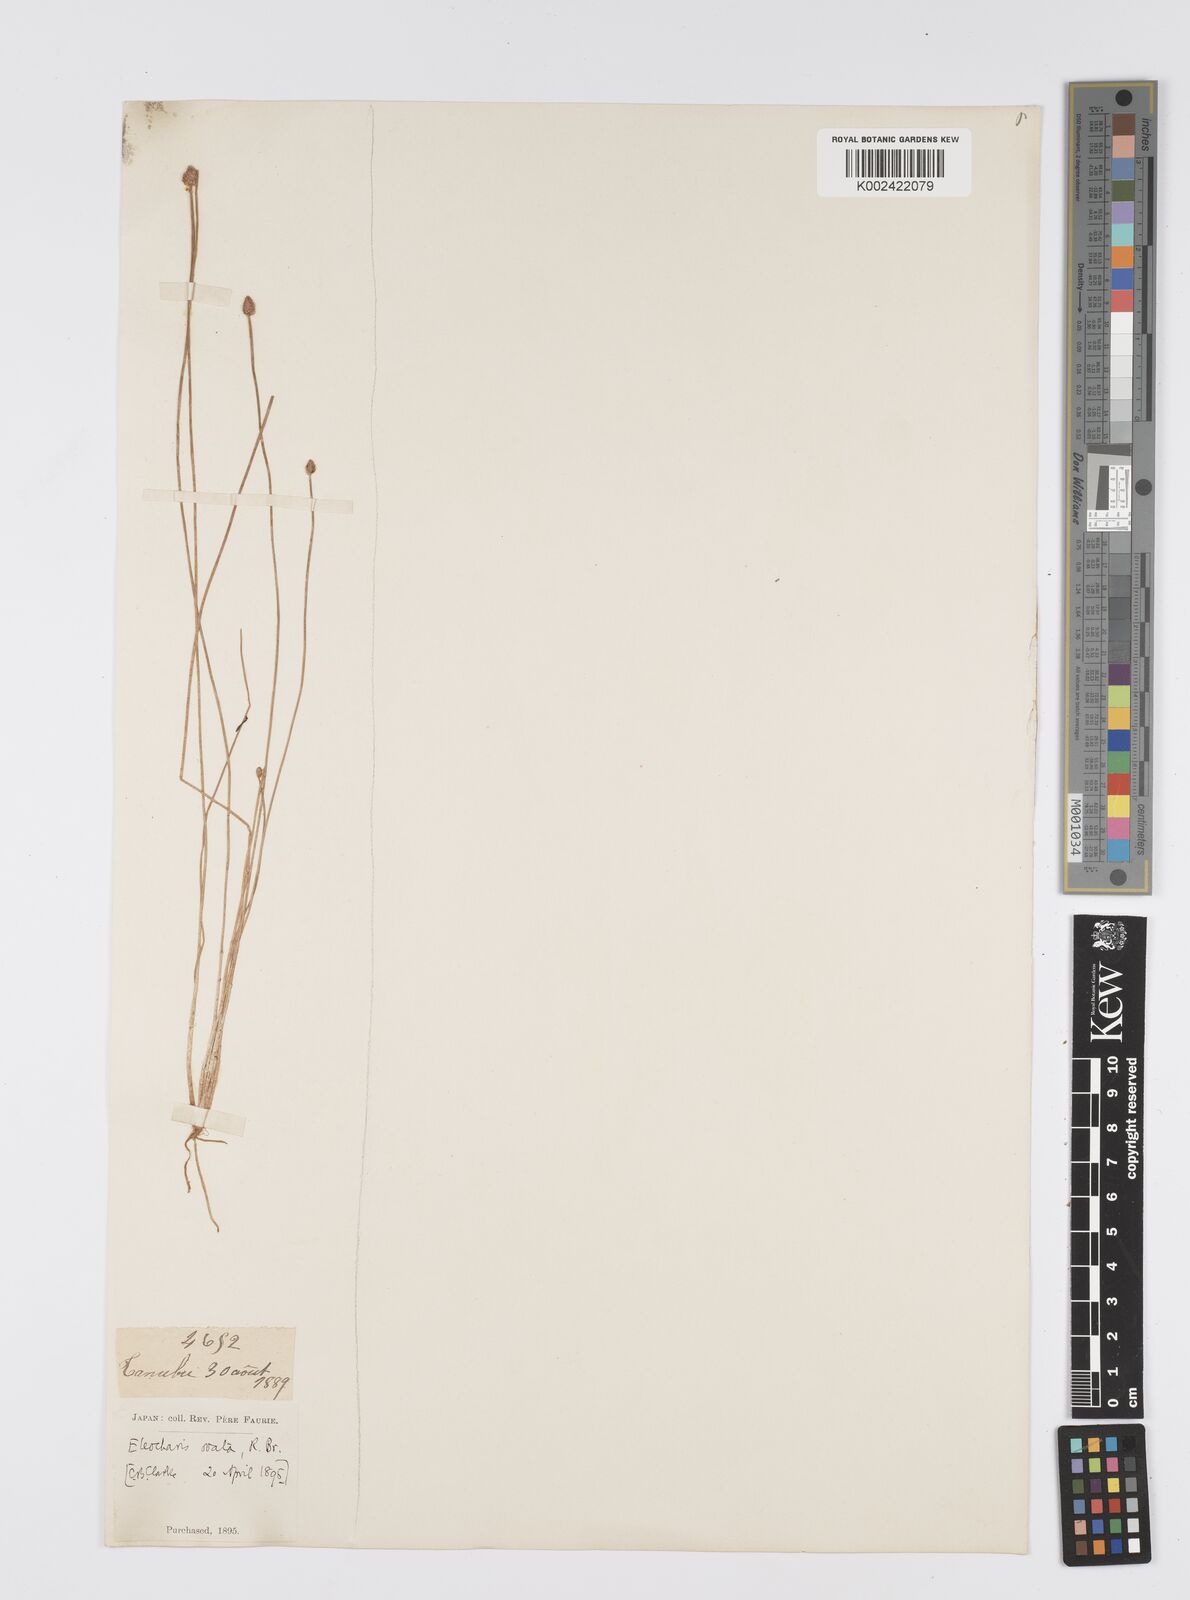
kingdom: Plantae
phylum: Tracheophyta
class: Liliopsida
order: Poales
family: Cyperaceae
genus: Eleocharis
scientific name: Eleocharis ovata
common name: Oval spike-rush
